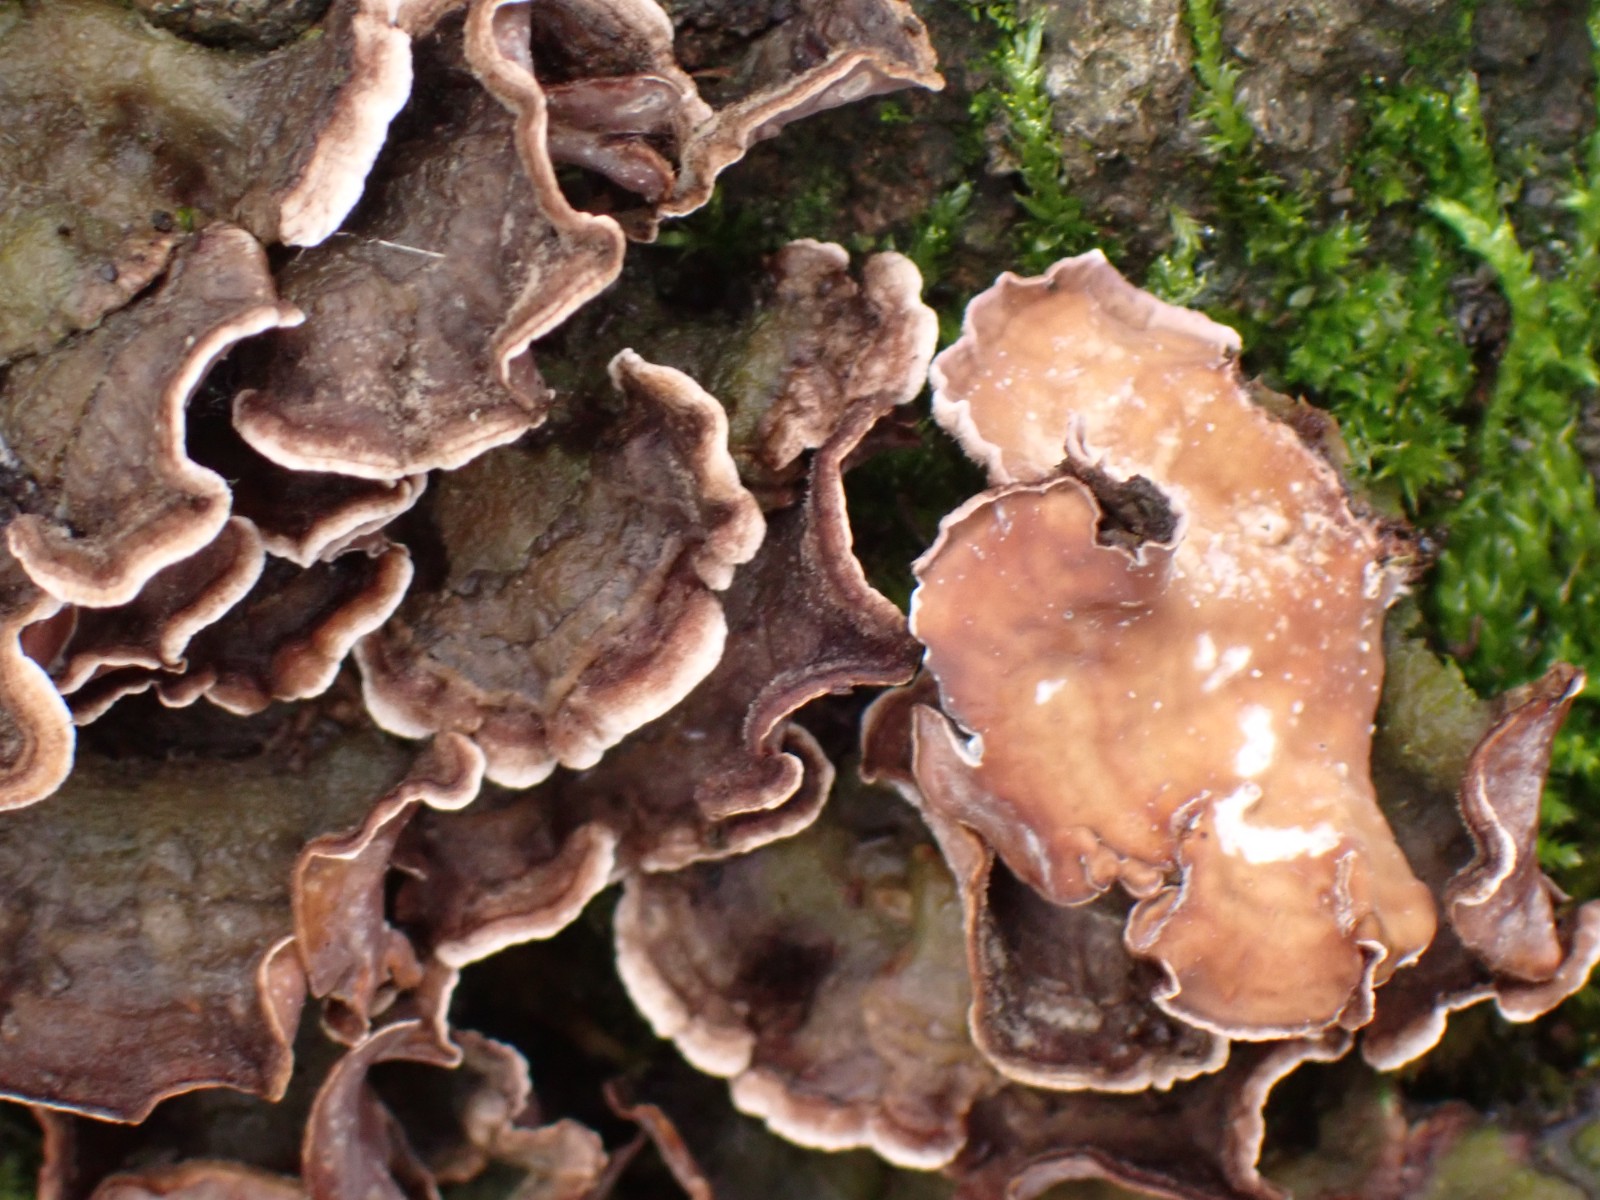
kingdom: Fungi
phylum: Basidiomycota
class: Agaricomycetes
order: Russulales
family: Stereaceae
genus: Stereum
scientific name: Stereum hirsutum
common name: håret lædersvamp
